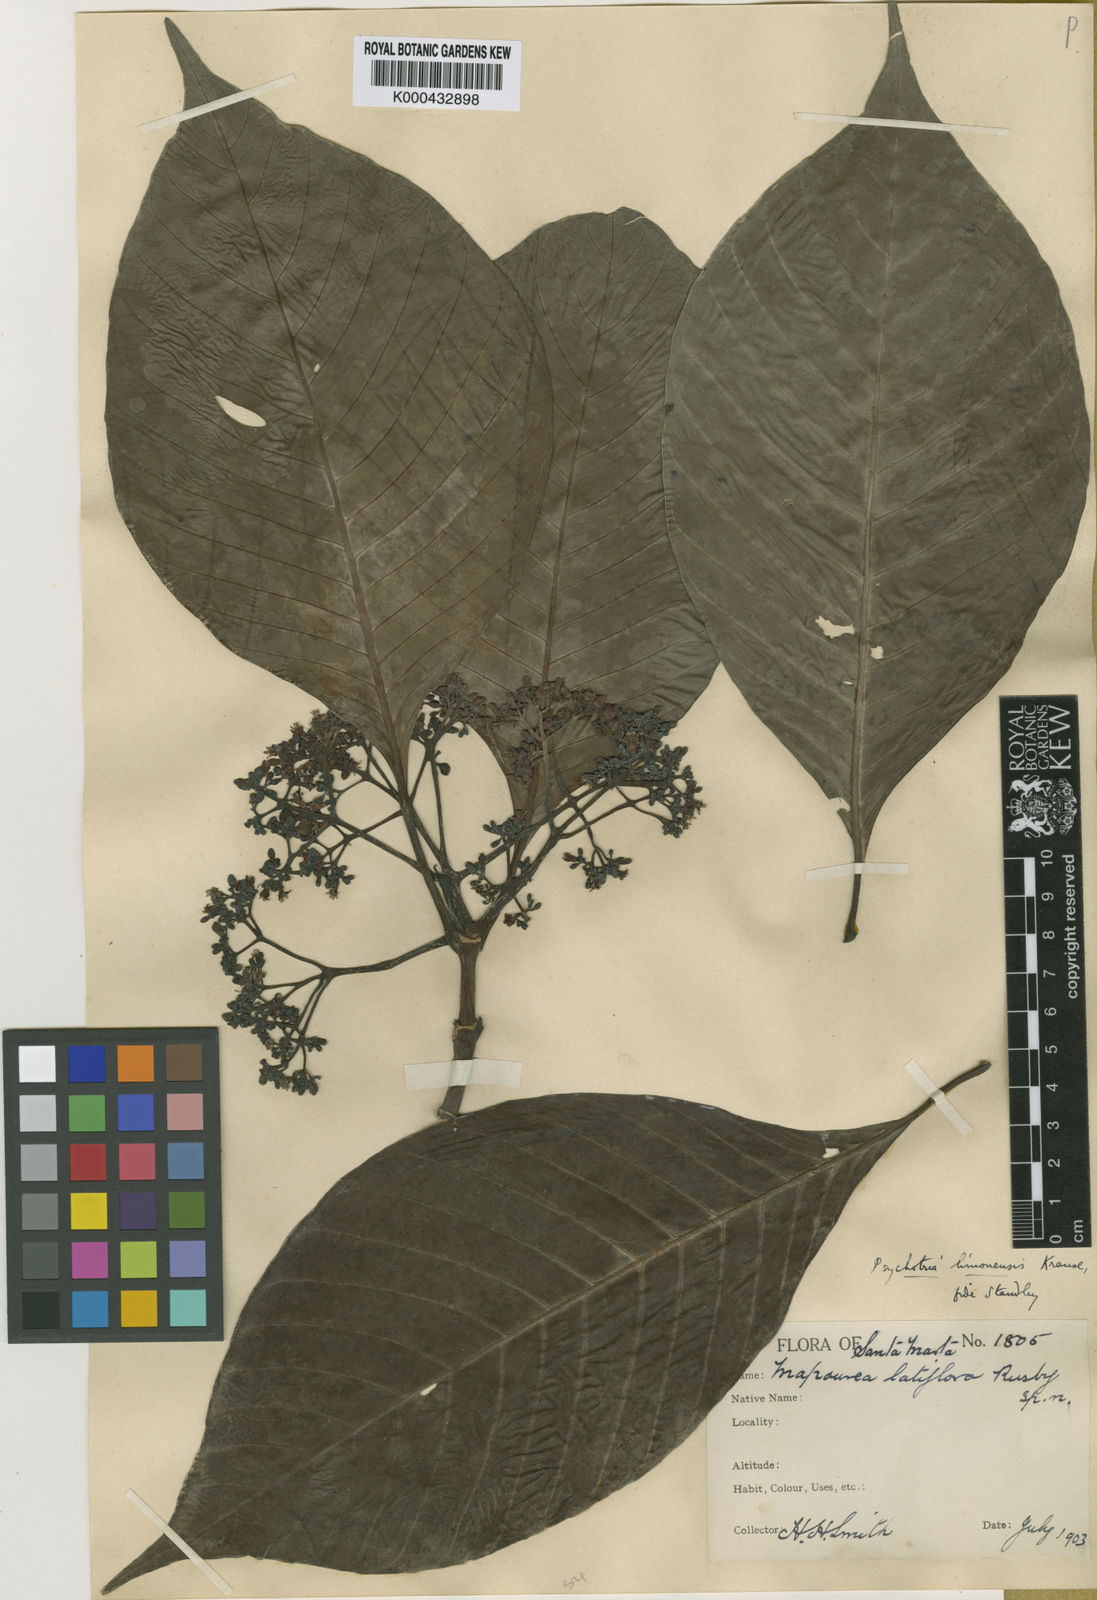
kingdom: Plantae
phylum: Tracheophyta
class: Magnoliopsida
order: Gentianales
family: Rubiaceae
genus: Psychotria
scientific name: Psychotria limonensis
